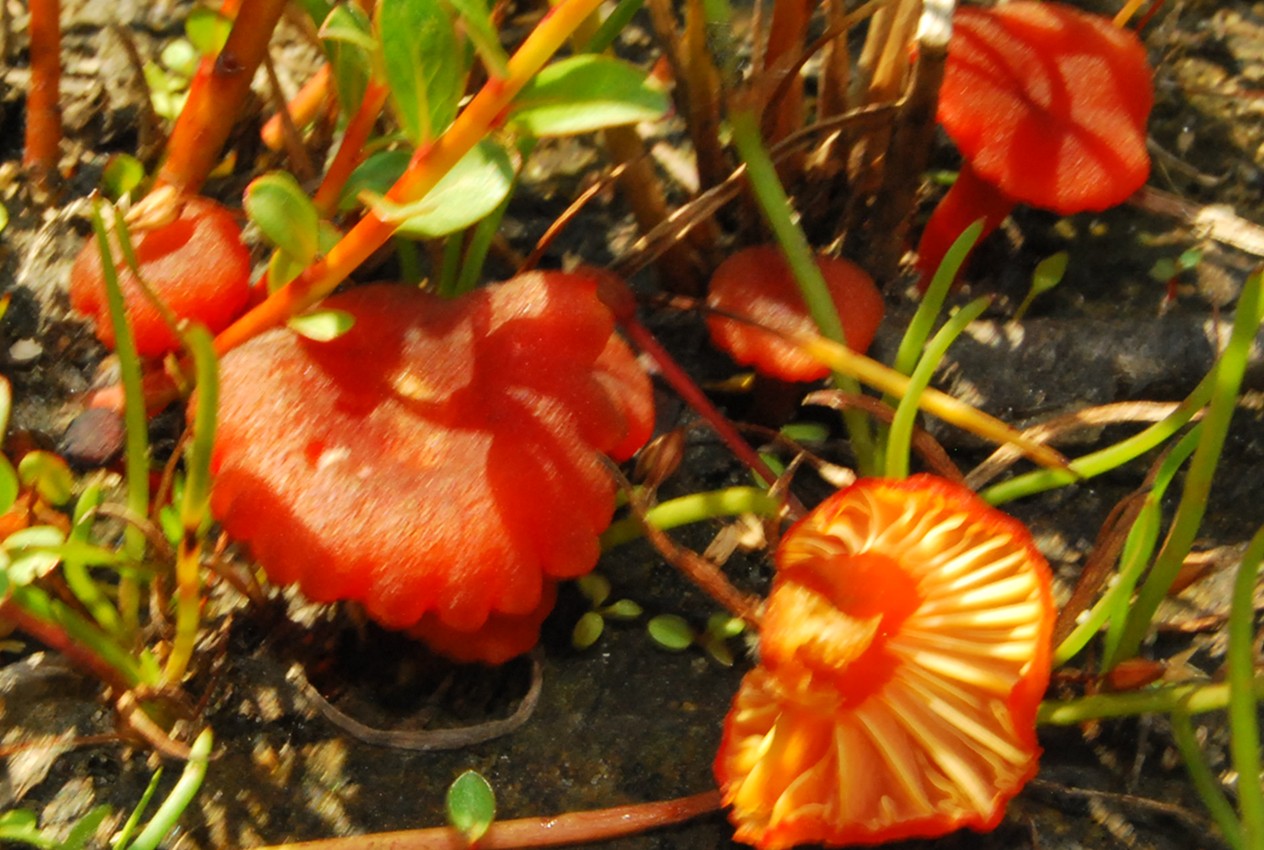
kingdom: Fungi
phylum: Basidiomycota
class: Agaricomycetes
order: Agaricales
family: Hygrophoraceae
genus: Hygrocybe
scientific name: Hygrocybe substrangulata
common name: kær-vokshat
